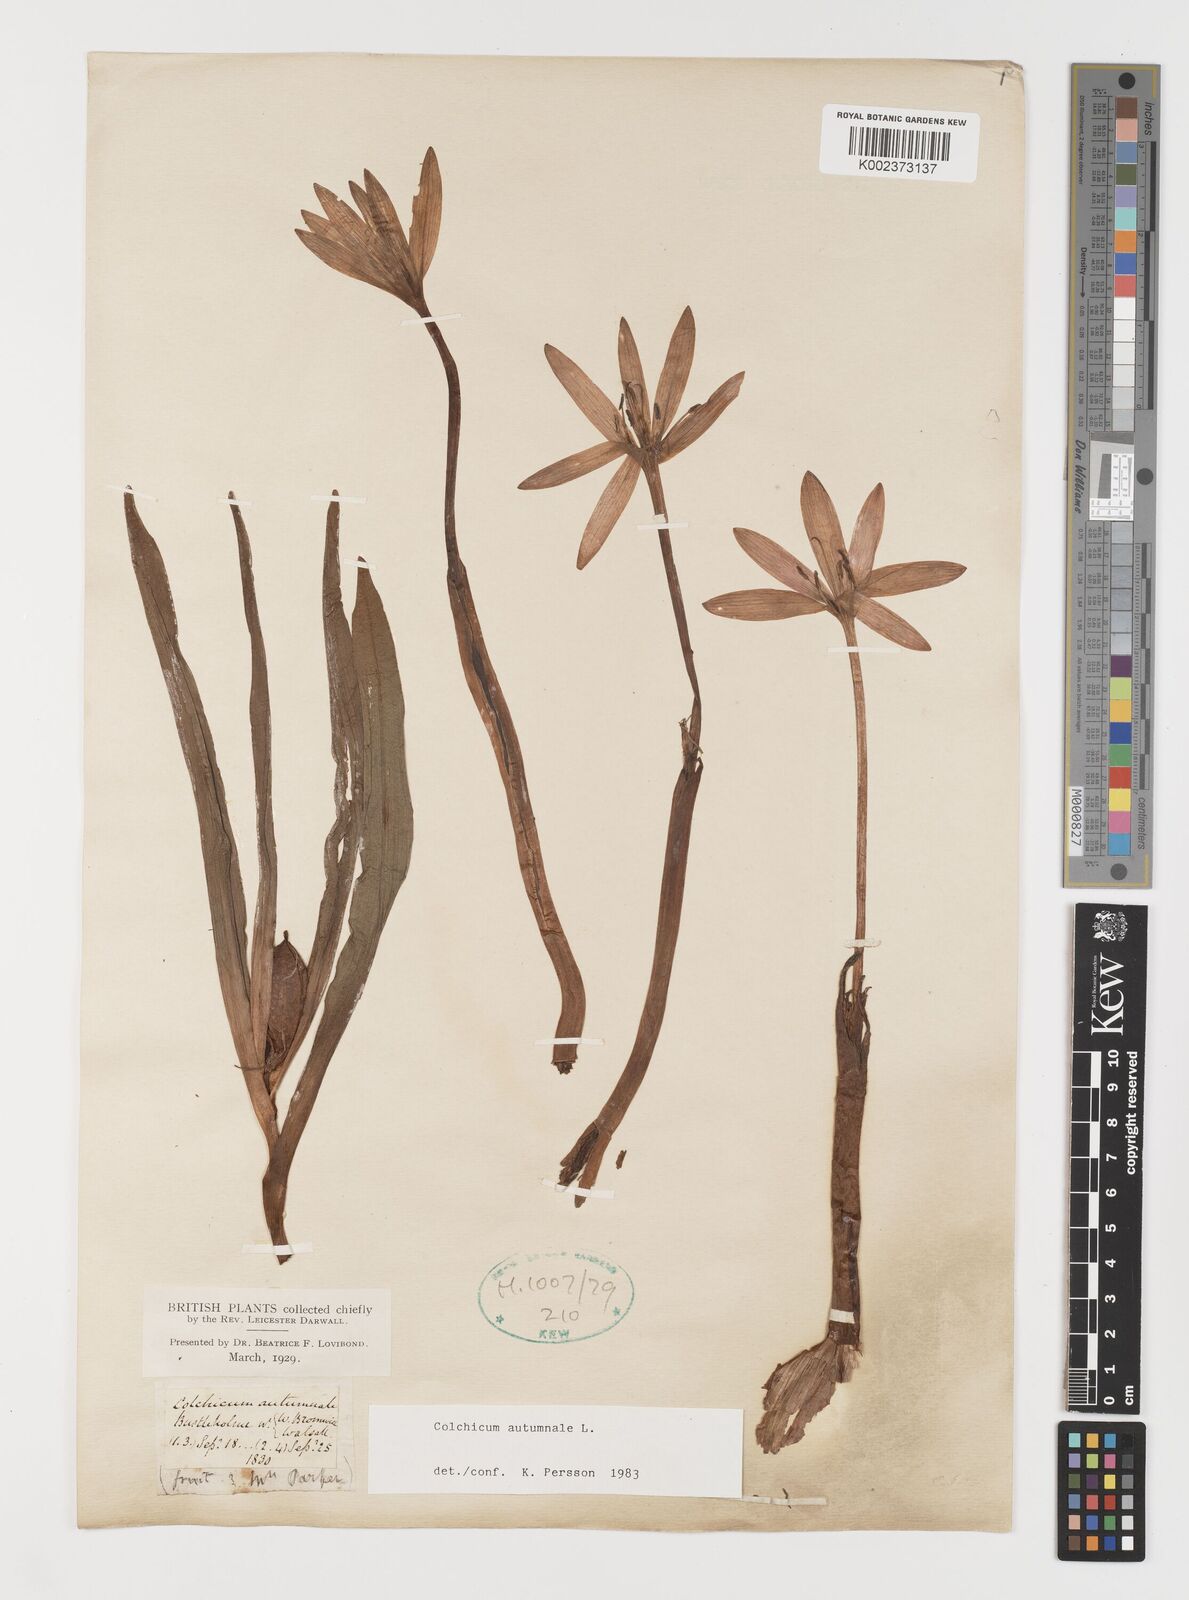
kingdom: Plantae
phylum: Tracheophyta
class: Liliopsida
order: Liliales
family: Colchicaceae
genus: Colchicum
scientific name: Colchicum autumnale
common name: Autumn crocus
